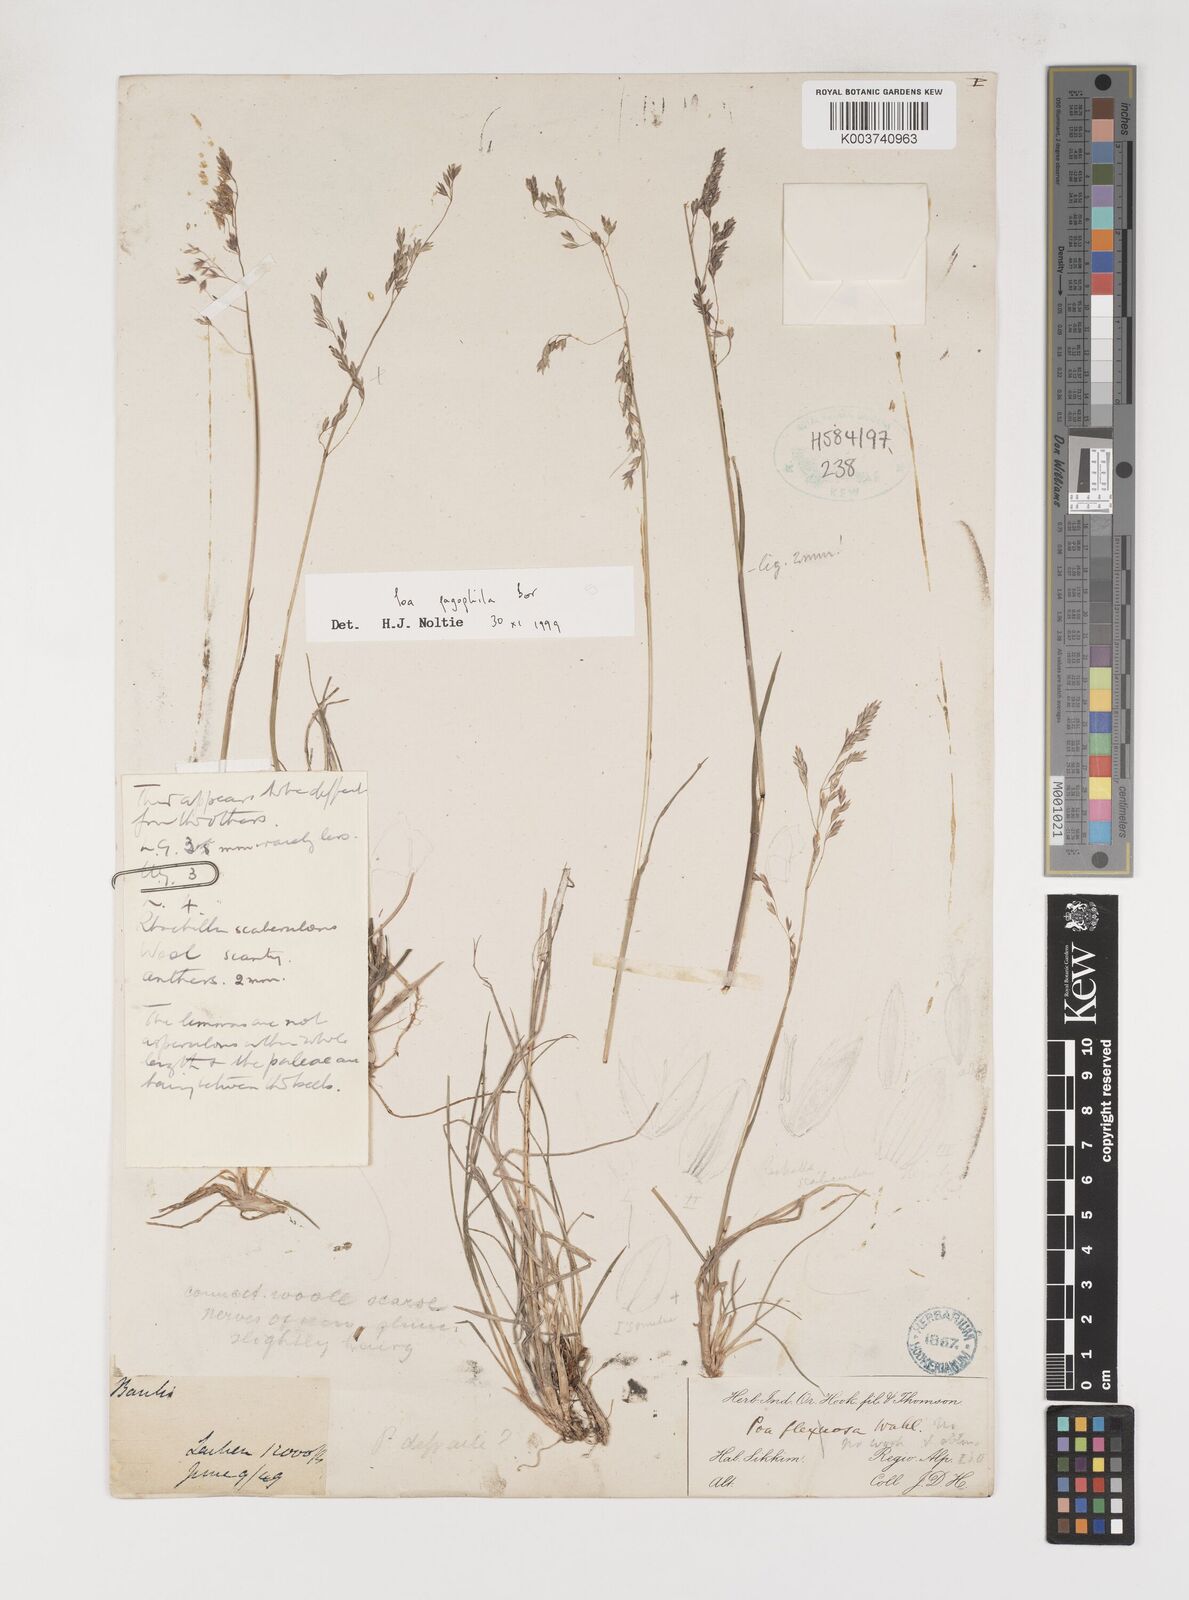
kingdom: Plantae
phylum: Tracheophyta
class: Liliopsida
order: Poales
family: Poaceae
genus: Poa
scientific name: Poa pagophila
